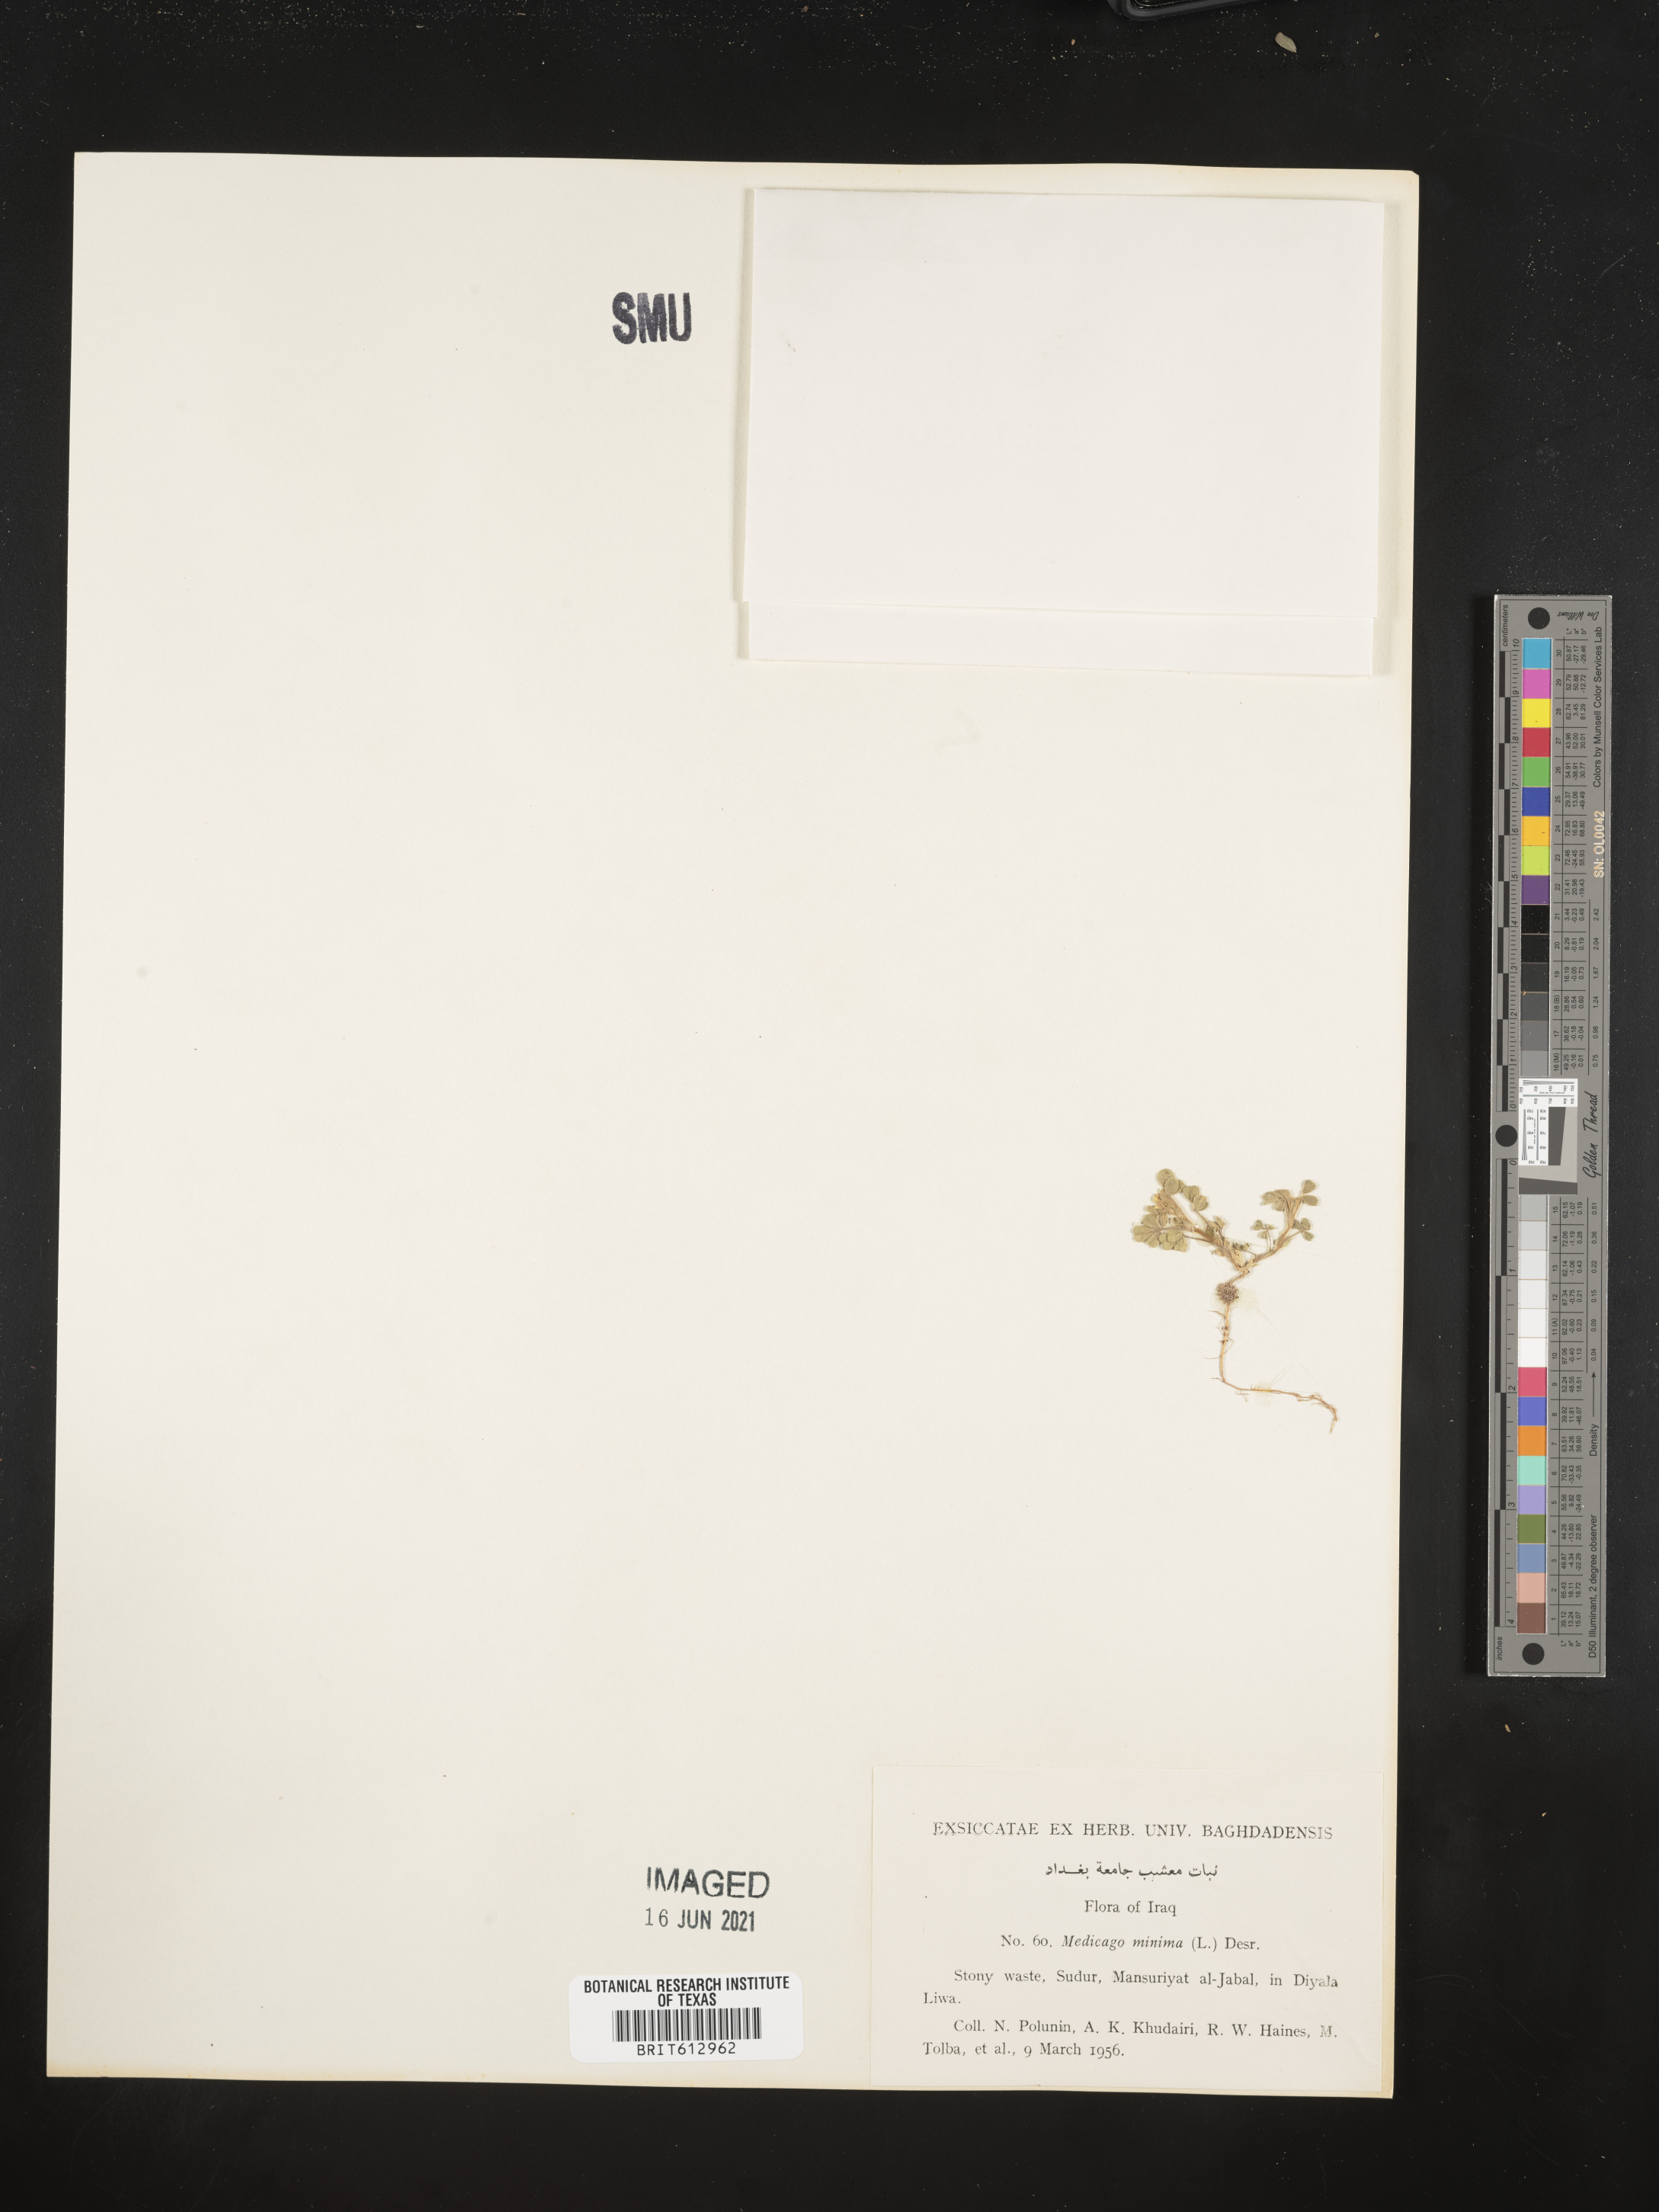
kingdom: Plantae
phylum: Tracheophyta
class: Magnoliopsida
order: Fabales
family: Fabaceae
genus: Medicago
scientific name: Medicago minima
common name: Little bur-clover
